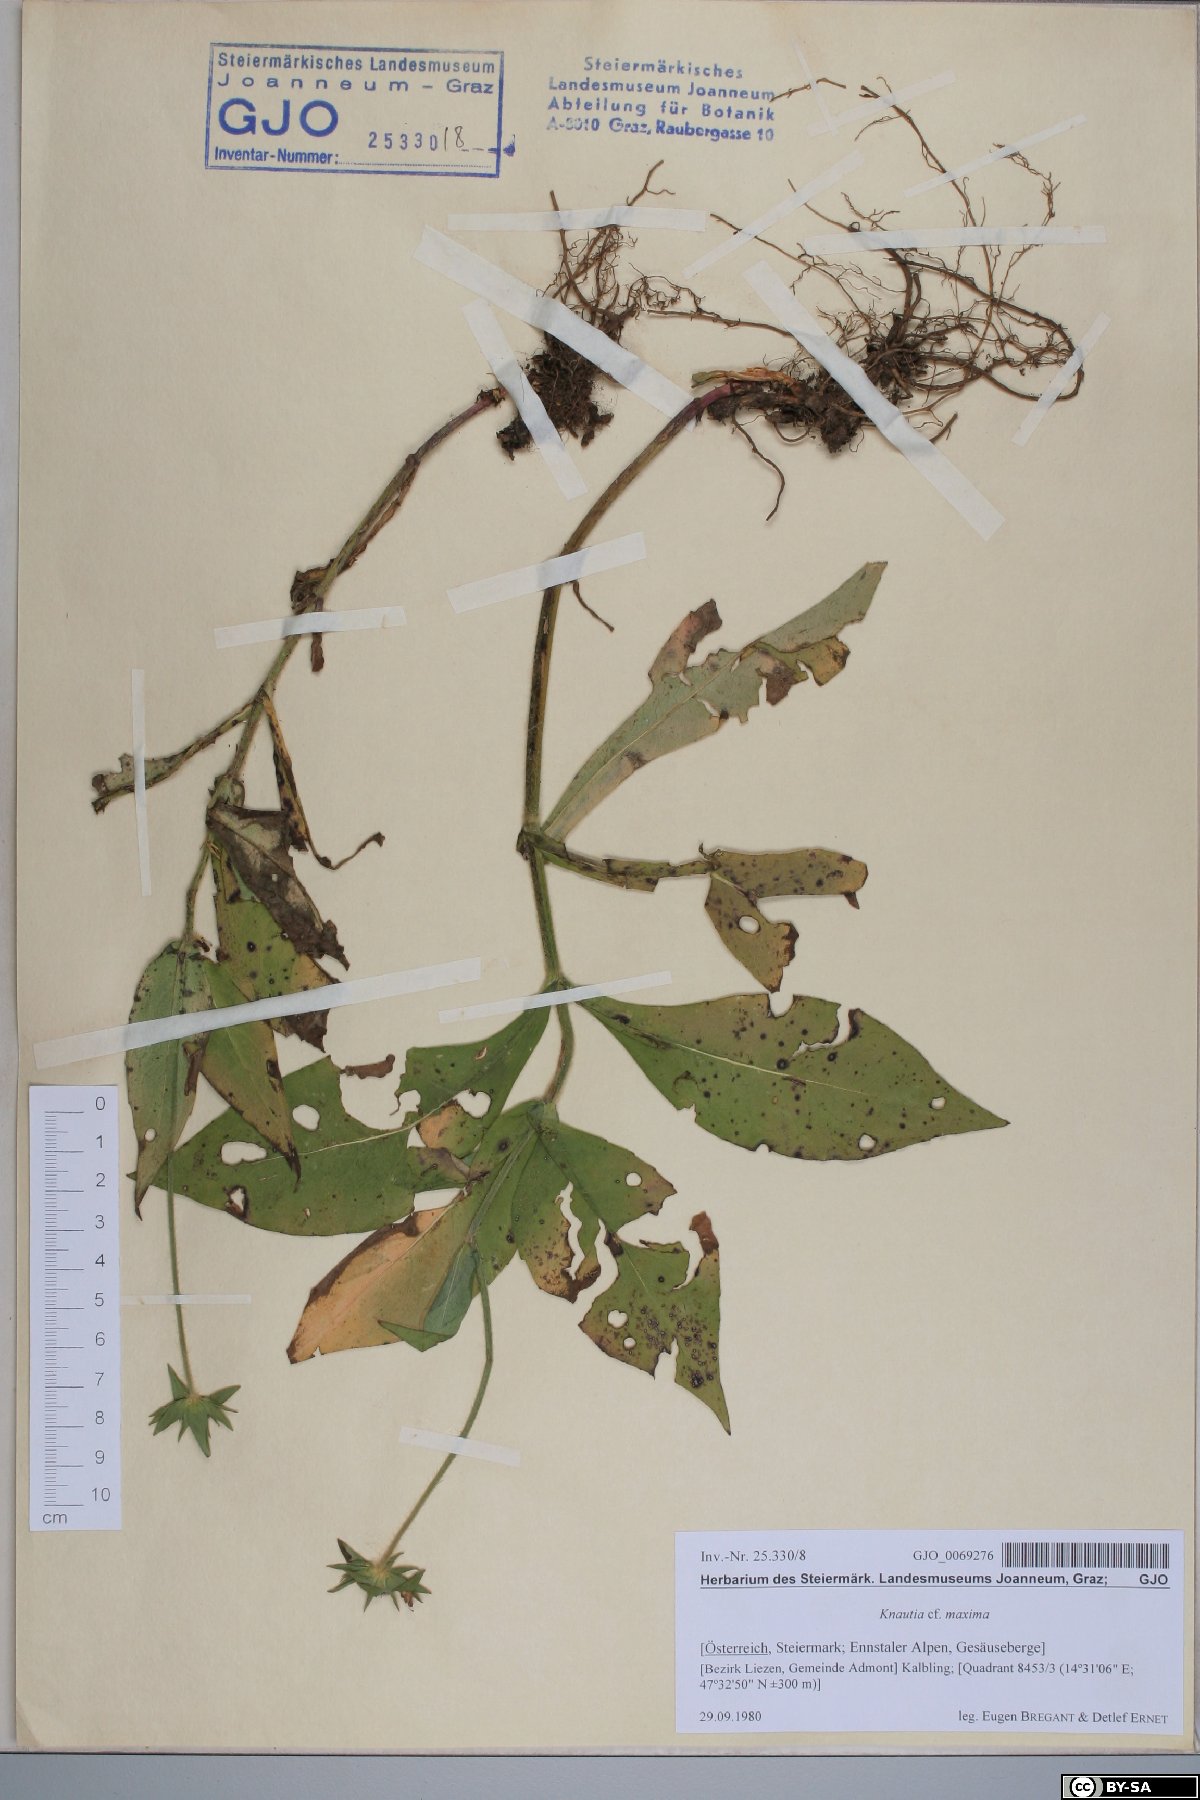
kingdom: Plantae
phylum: Tracheophyta
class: Magnoliopsida
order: Dipsacales
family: Caprifoliaceae
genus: Knautia
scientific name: Knautia dipsacifolia
